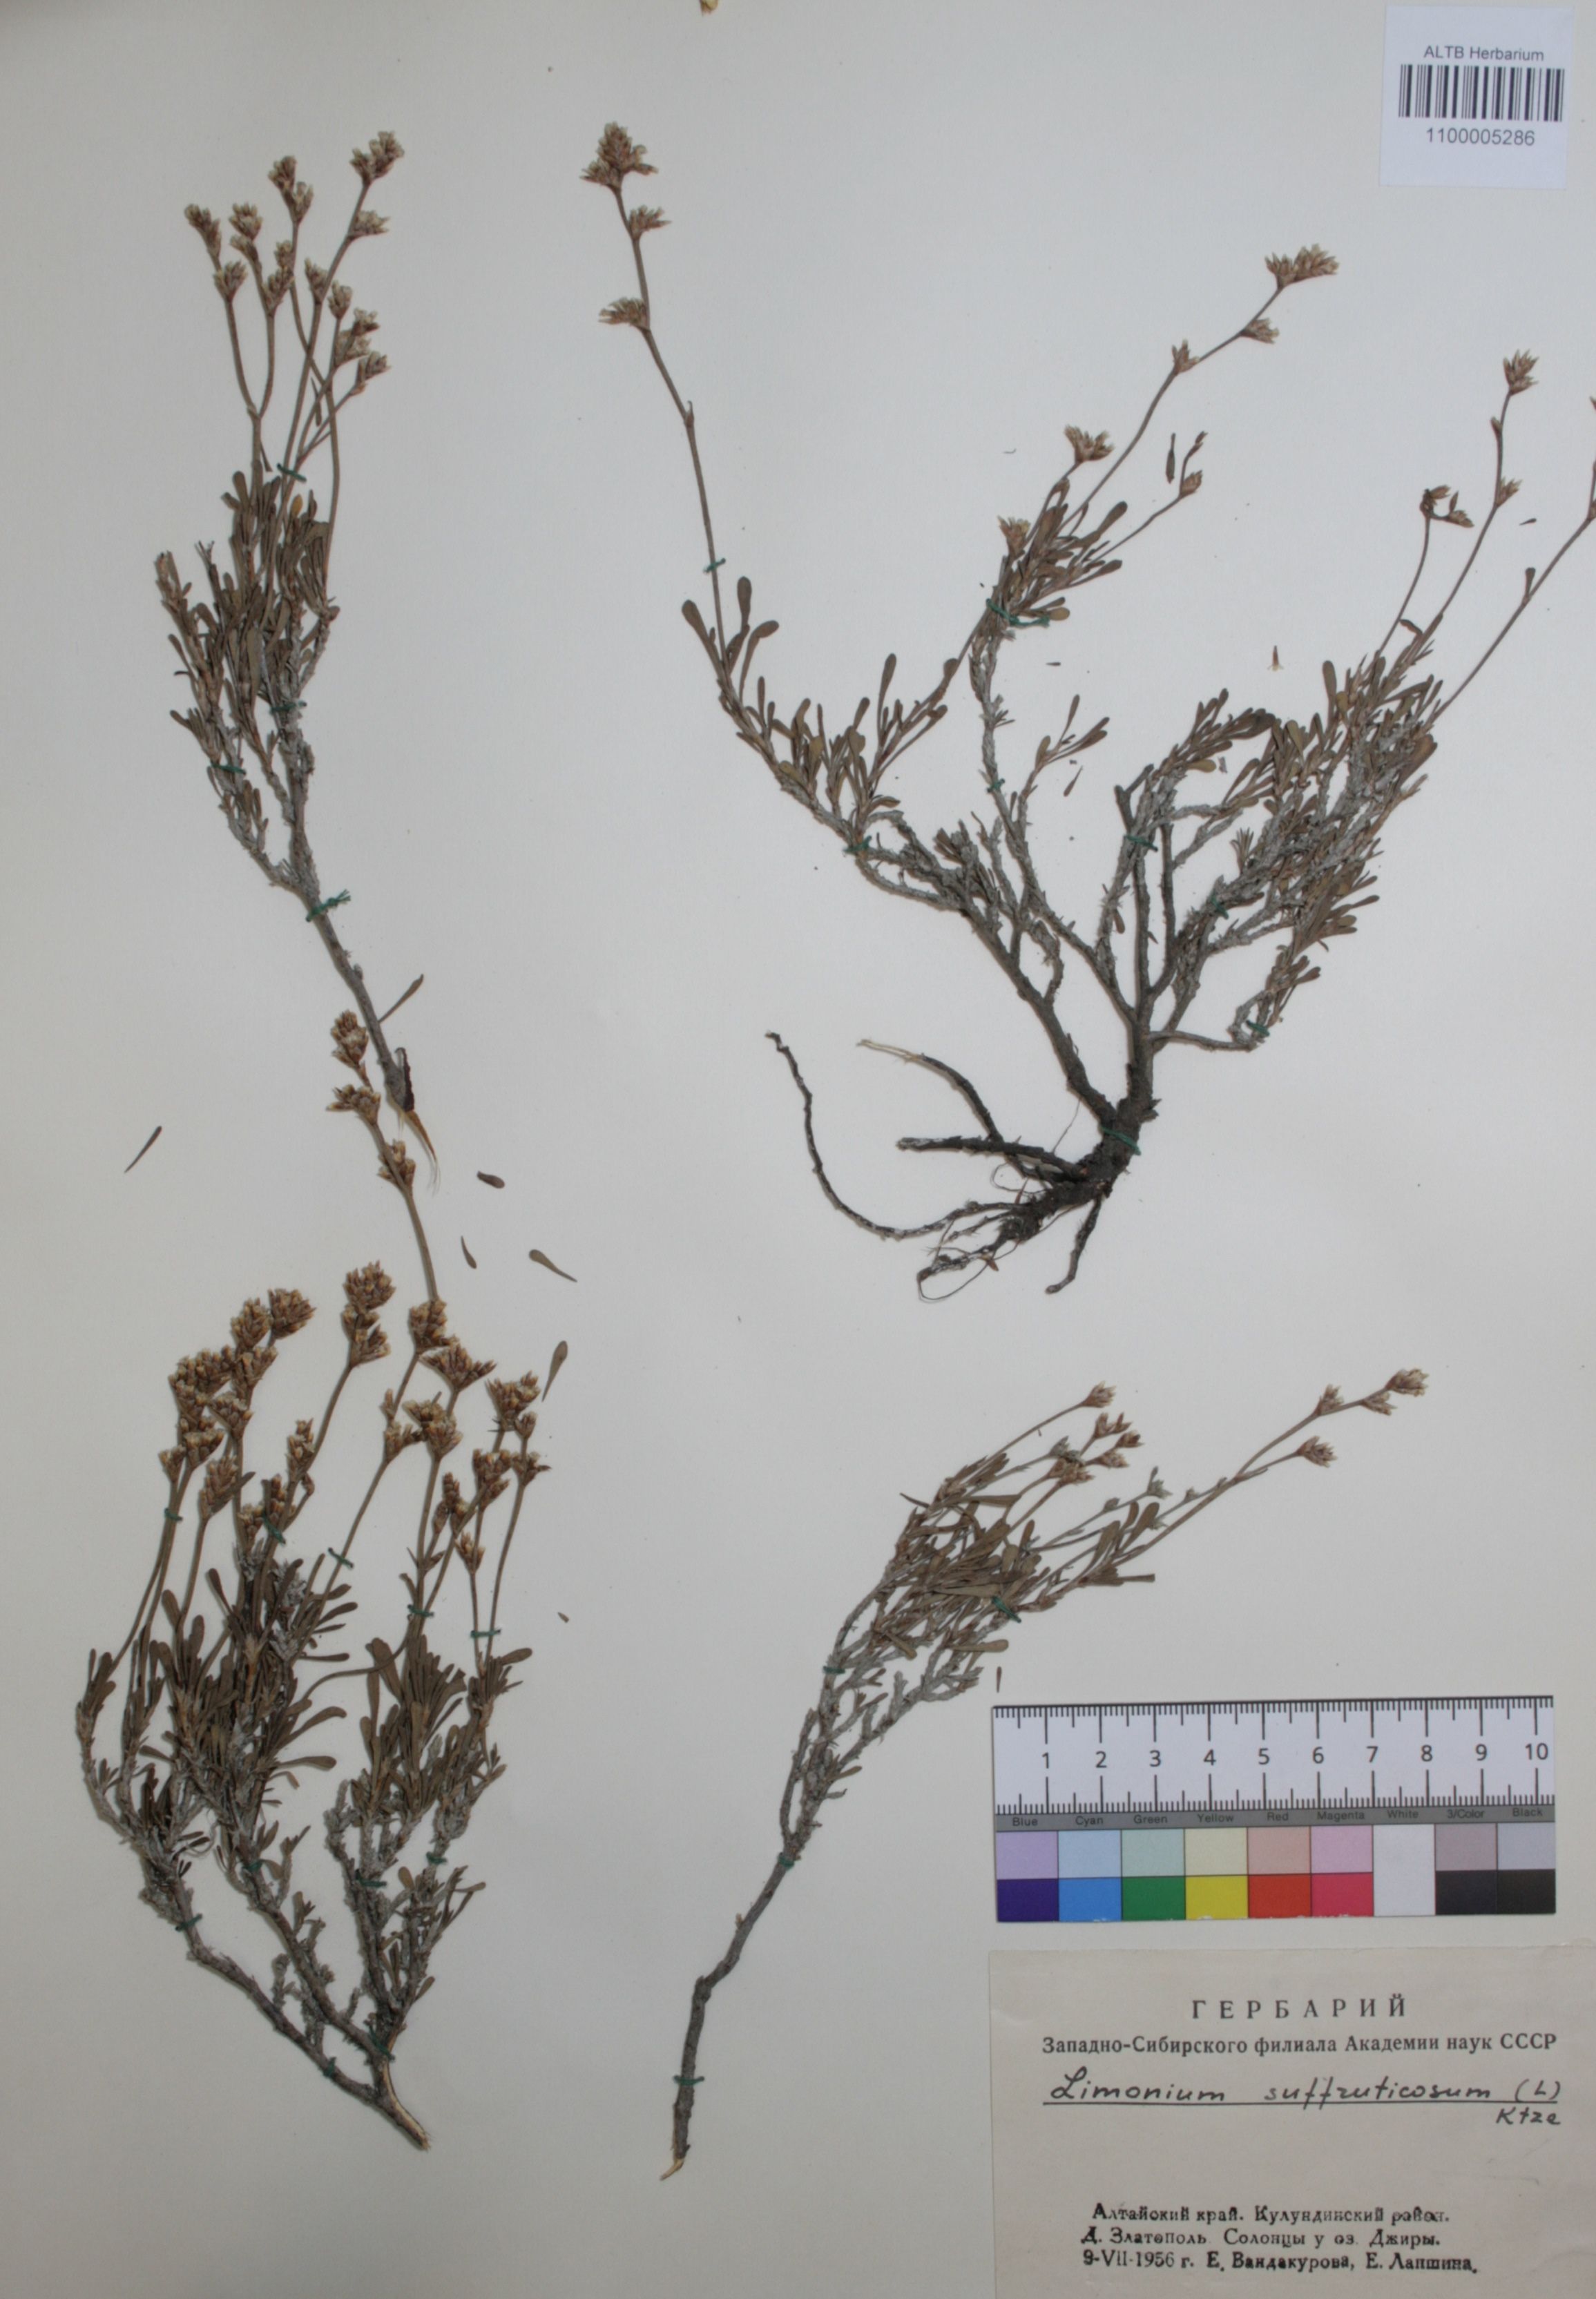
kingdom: Plantae
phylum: Tracheophyta
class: Magnoliopsida
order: Caryophyllales
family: Plumbaginaceae
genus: Limonium
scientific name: Limonium suffruticosum
